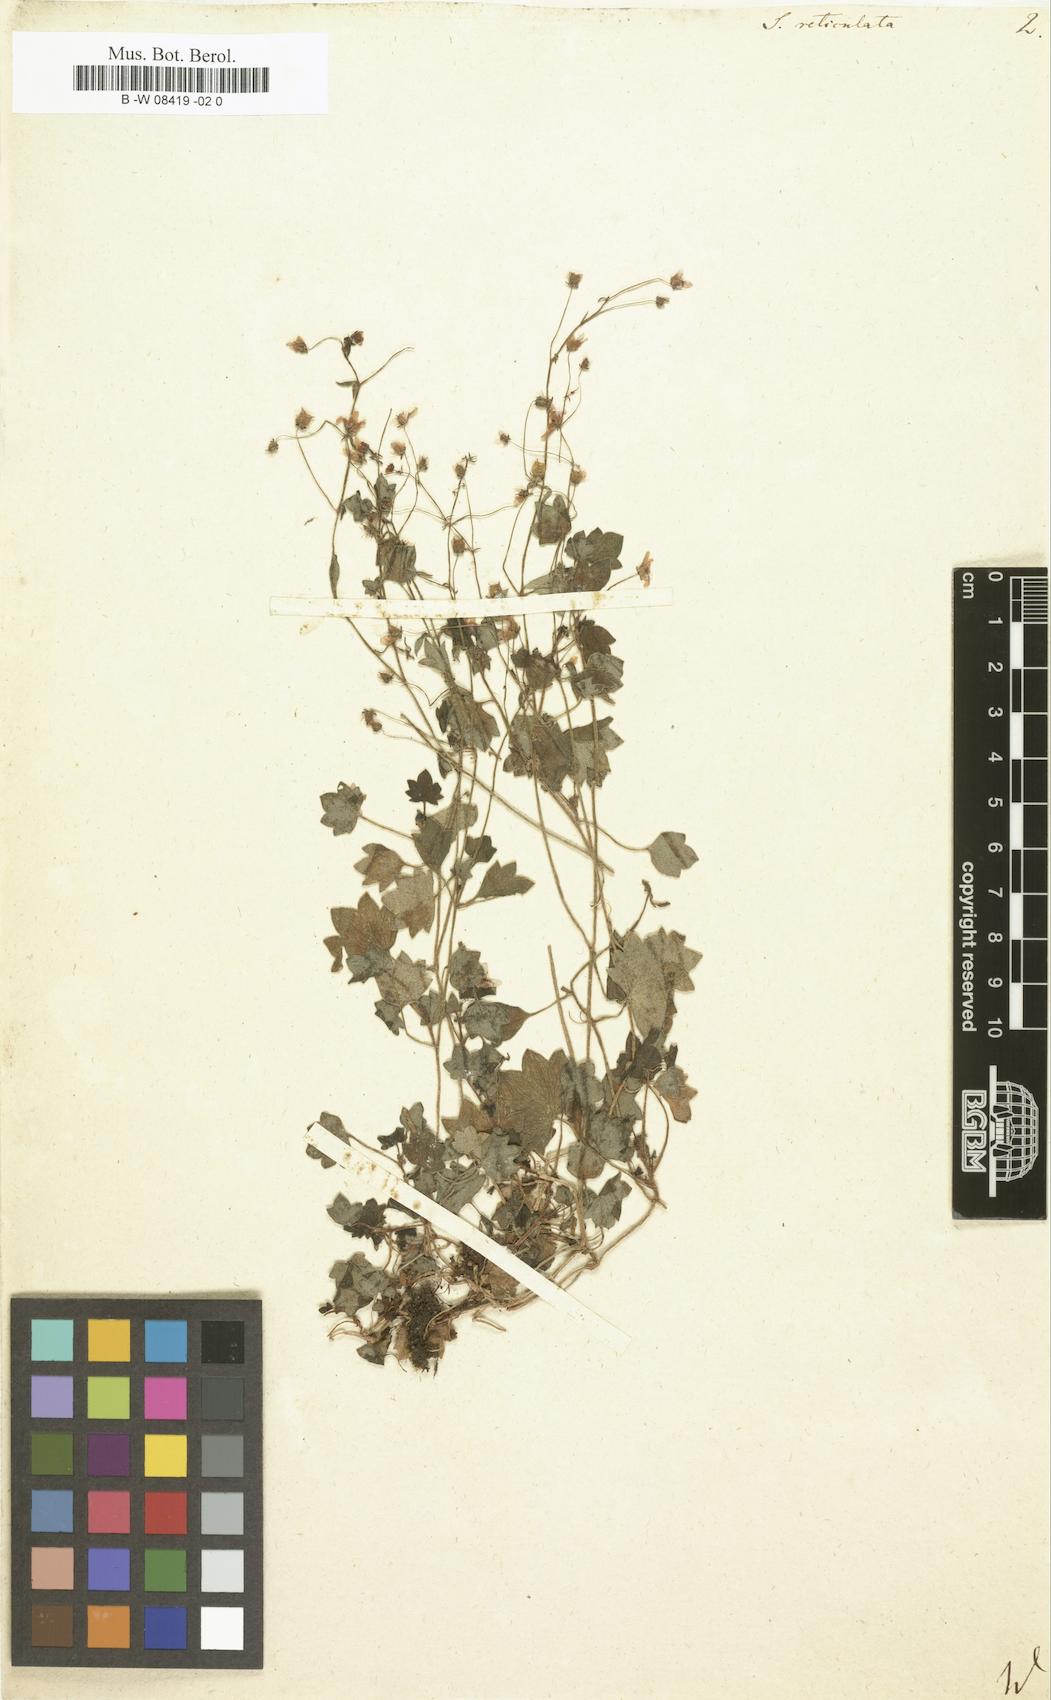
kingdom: Plantae
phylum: Tracheophyta
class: Magnoliopsida
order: Saxifragales
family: Saxifragaceae
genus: Saxifraga
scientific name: Saxifraga
